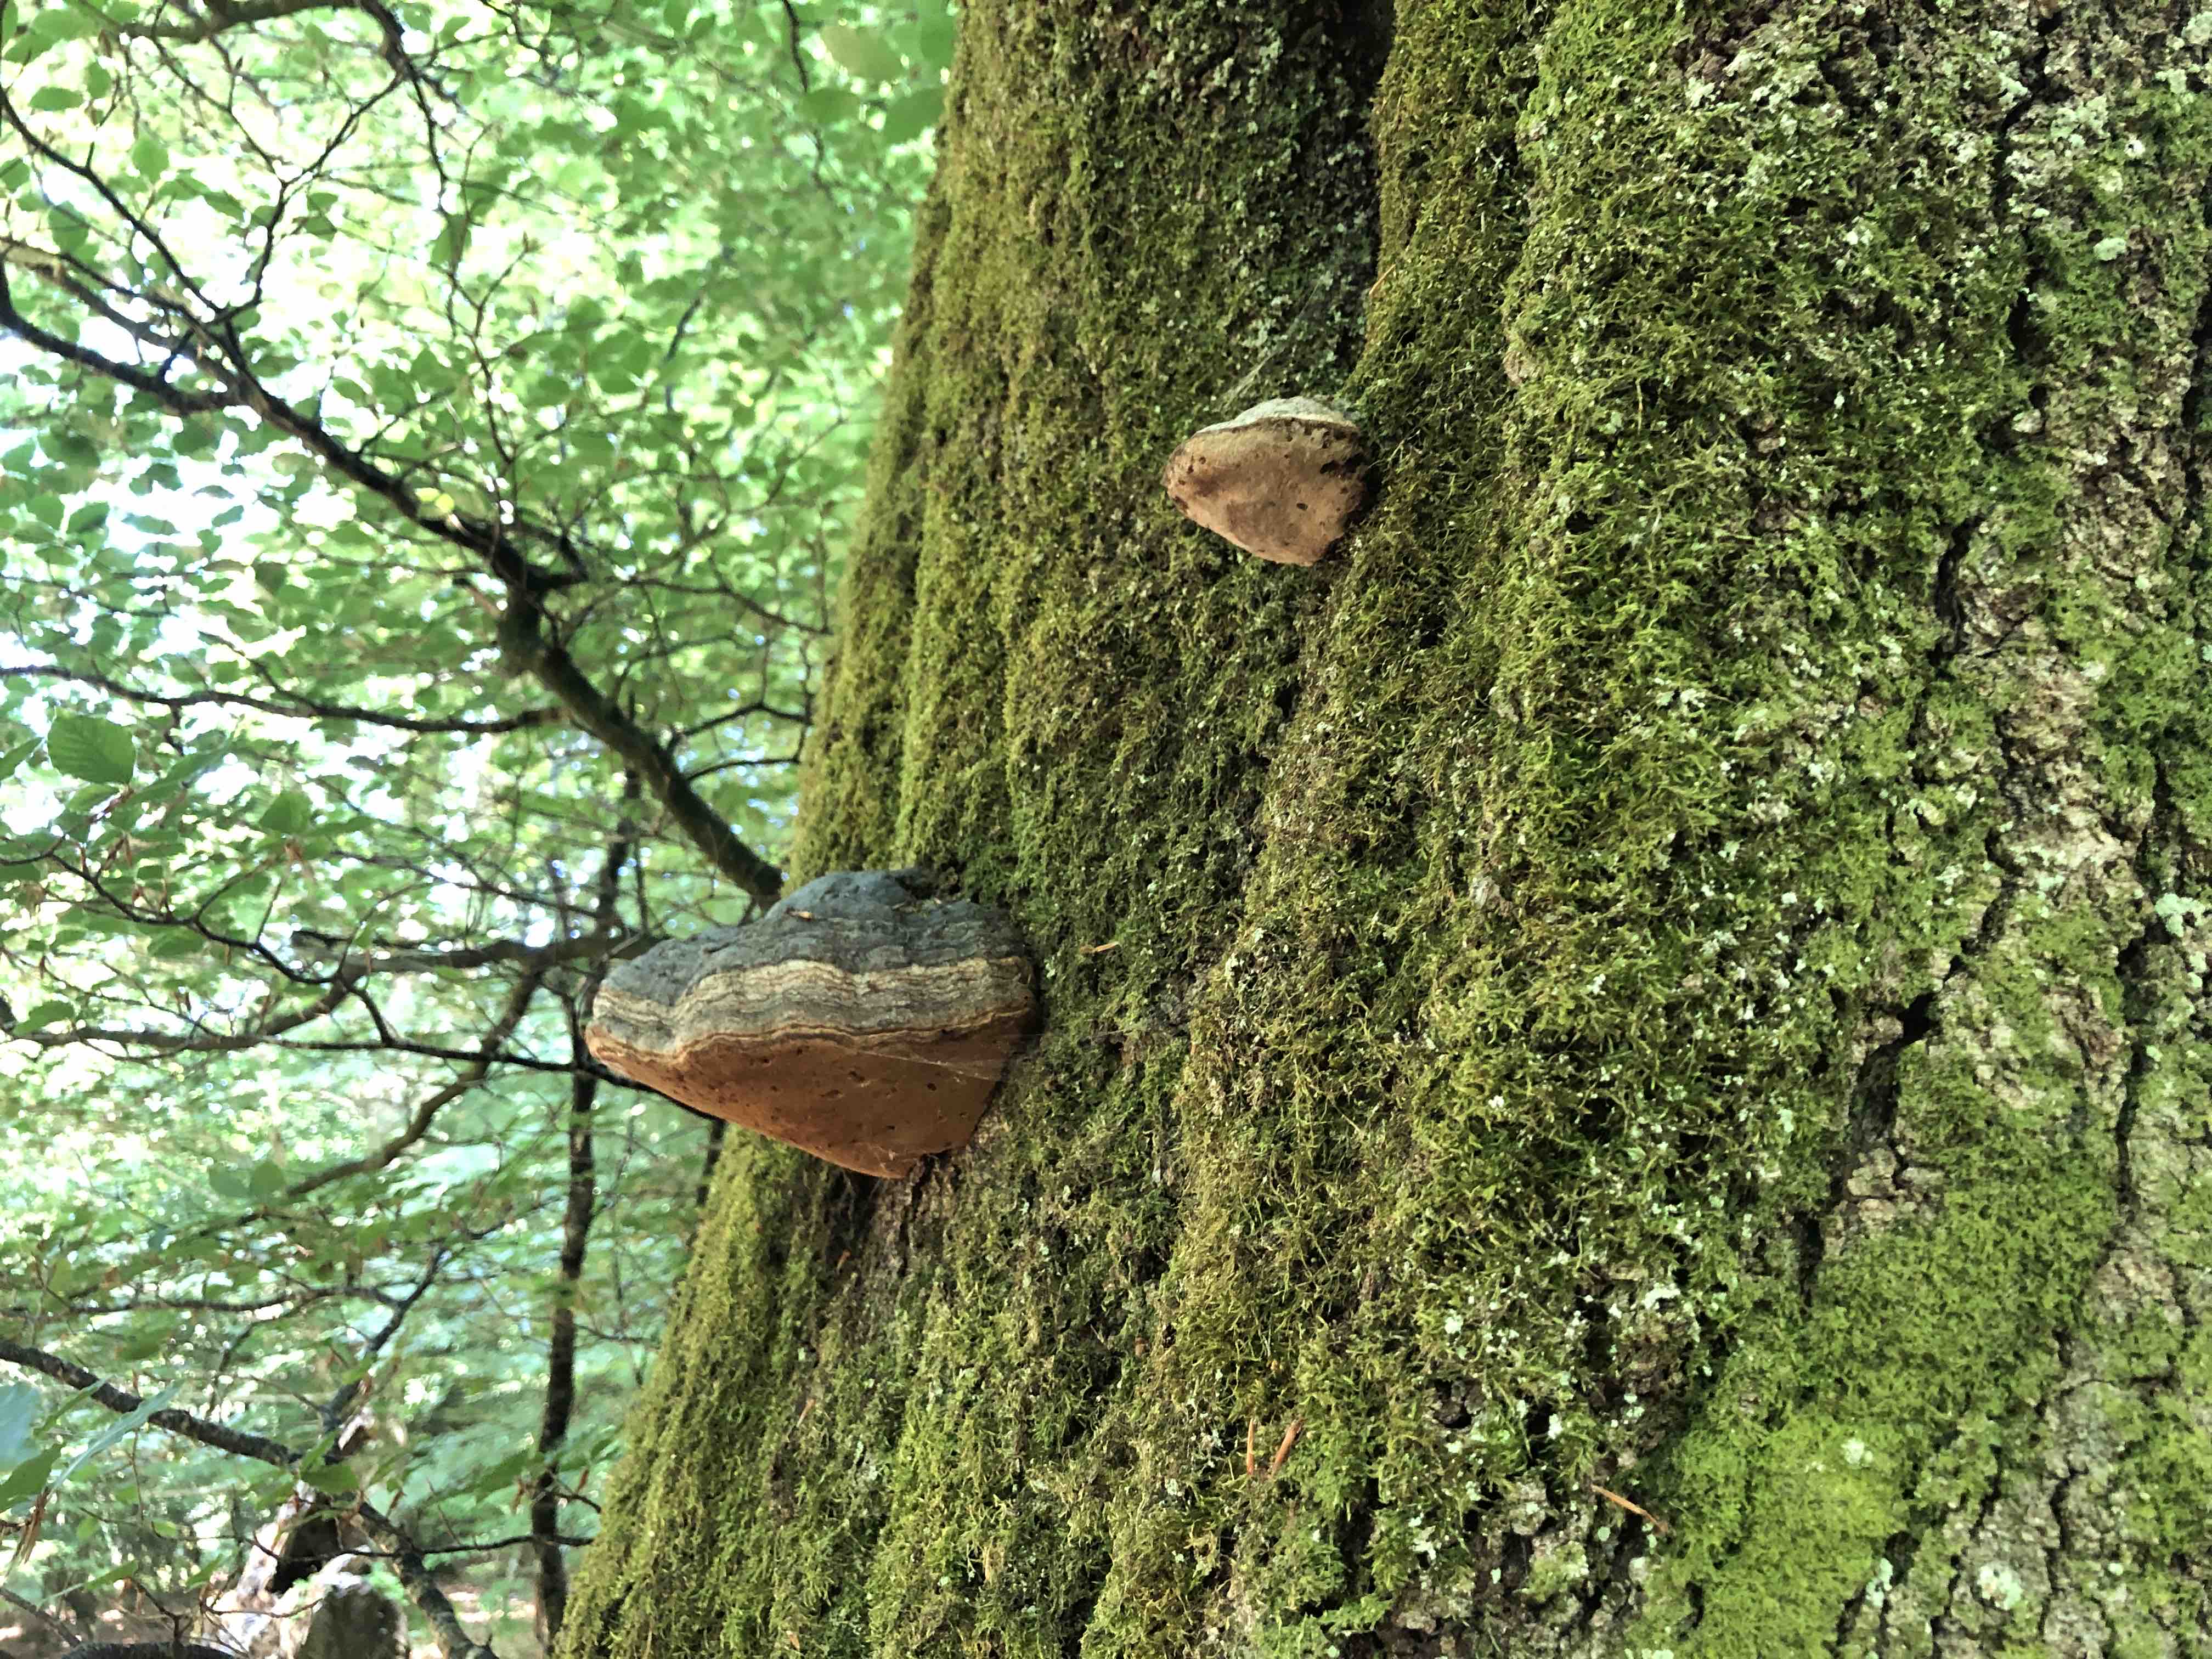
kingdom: Fungi
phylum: Basidiomycota
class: Agaricomycetes
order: Polyporales
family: Polyporaceae
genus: Fomes
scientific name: Fomes fomentarius
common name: tøndersvamp
